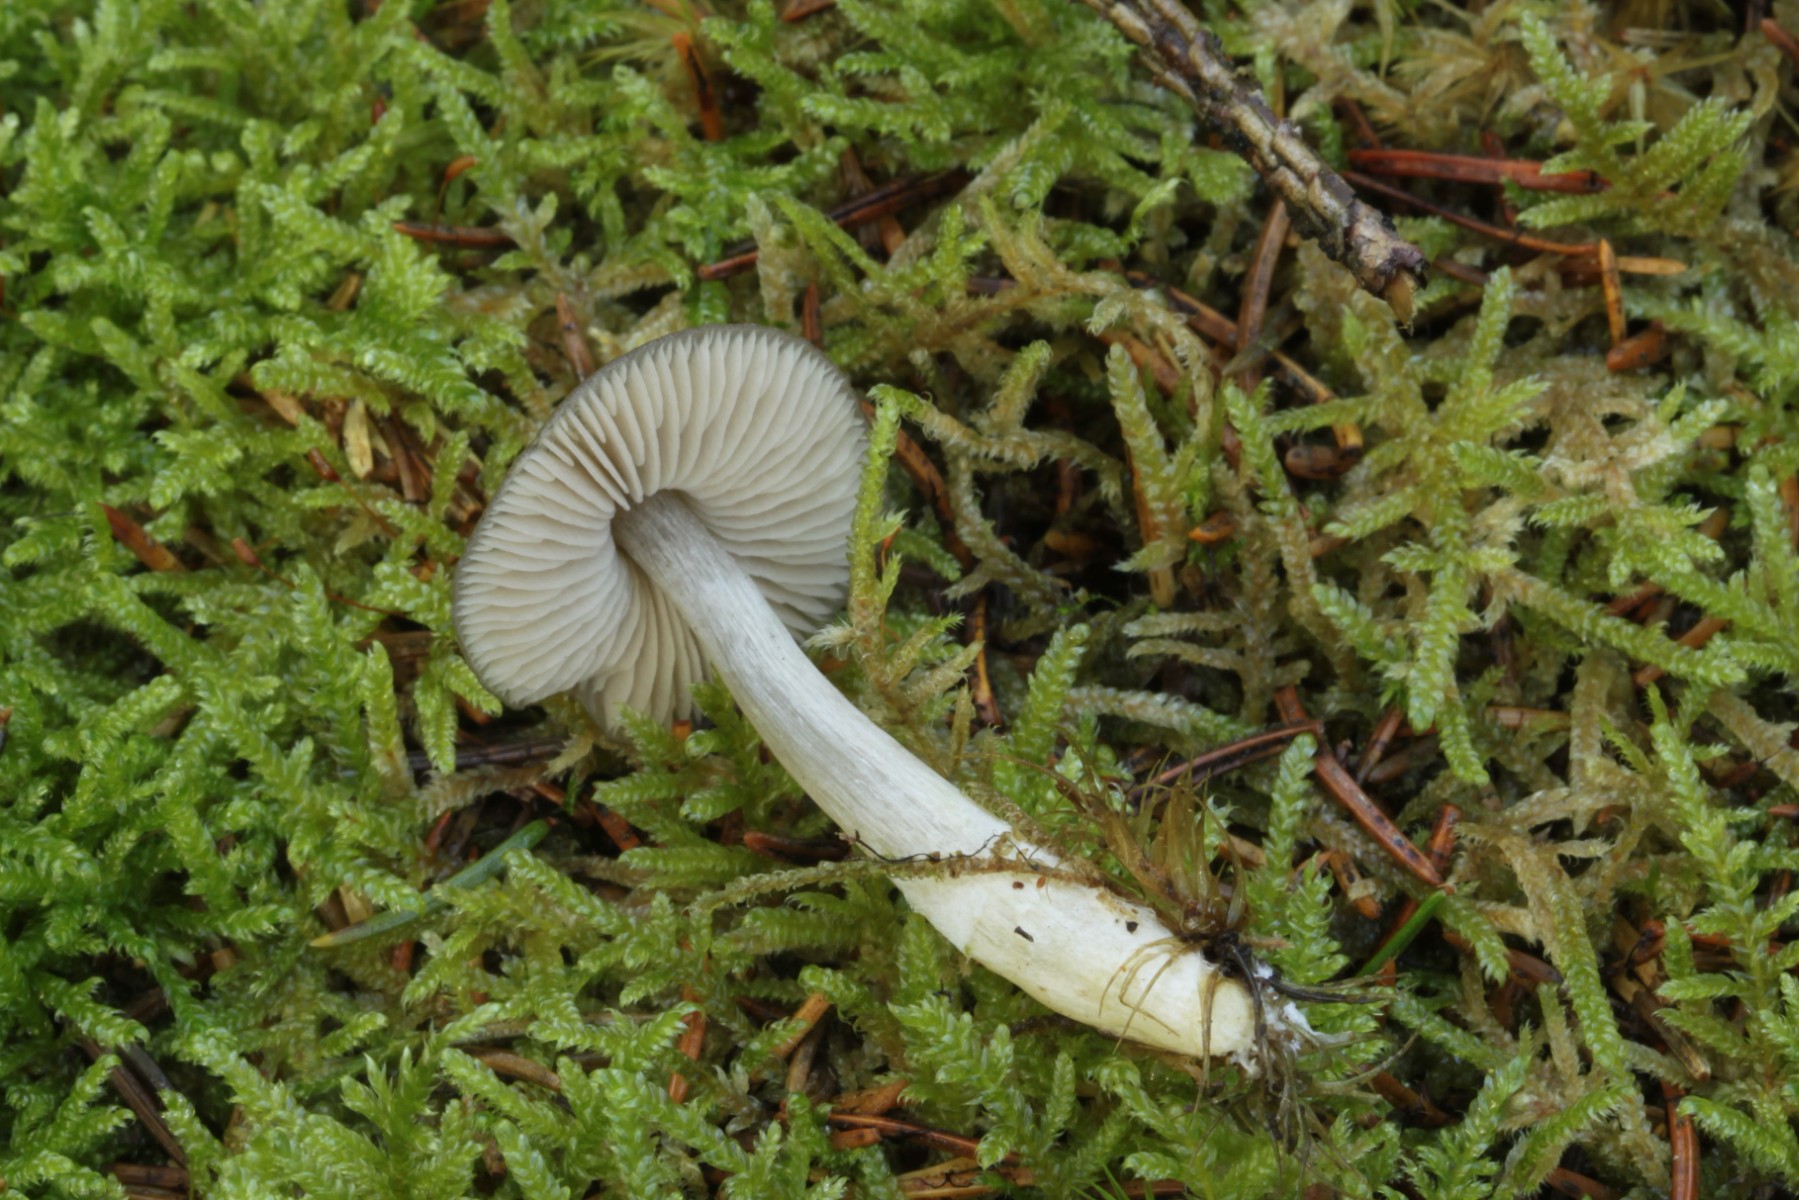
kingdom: Fungi
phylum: Basidiomycota
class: Agaricomycetes
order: Agaricales
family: Entolomataceae
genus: Entocybe
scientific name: Entocybe turbida
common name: plantage-rødblad
